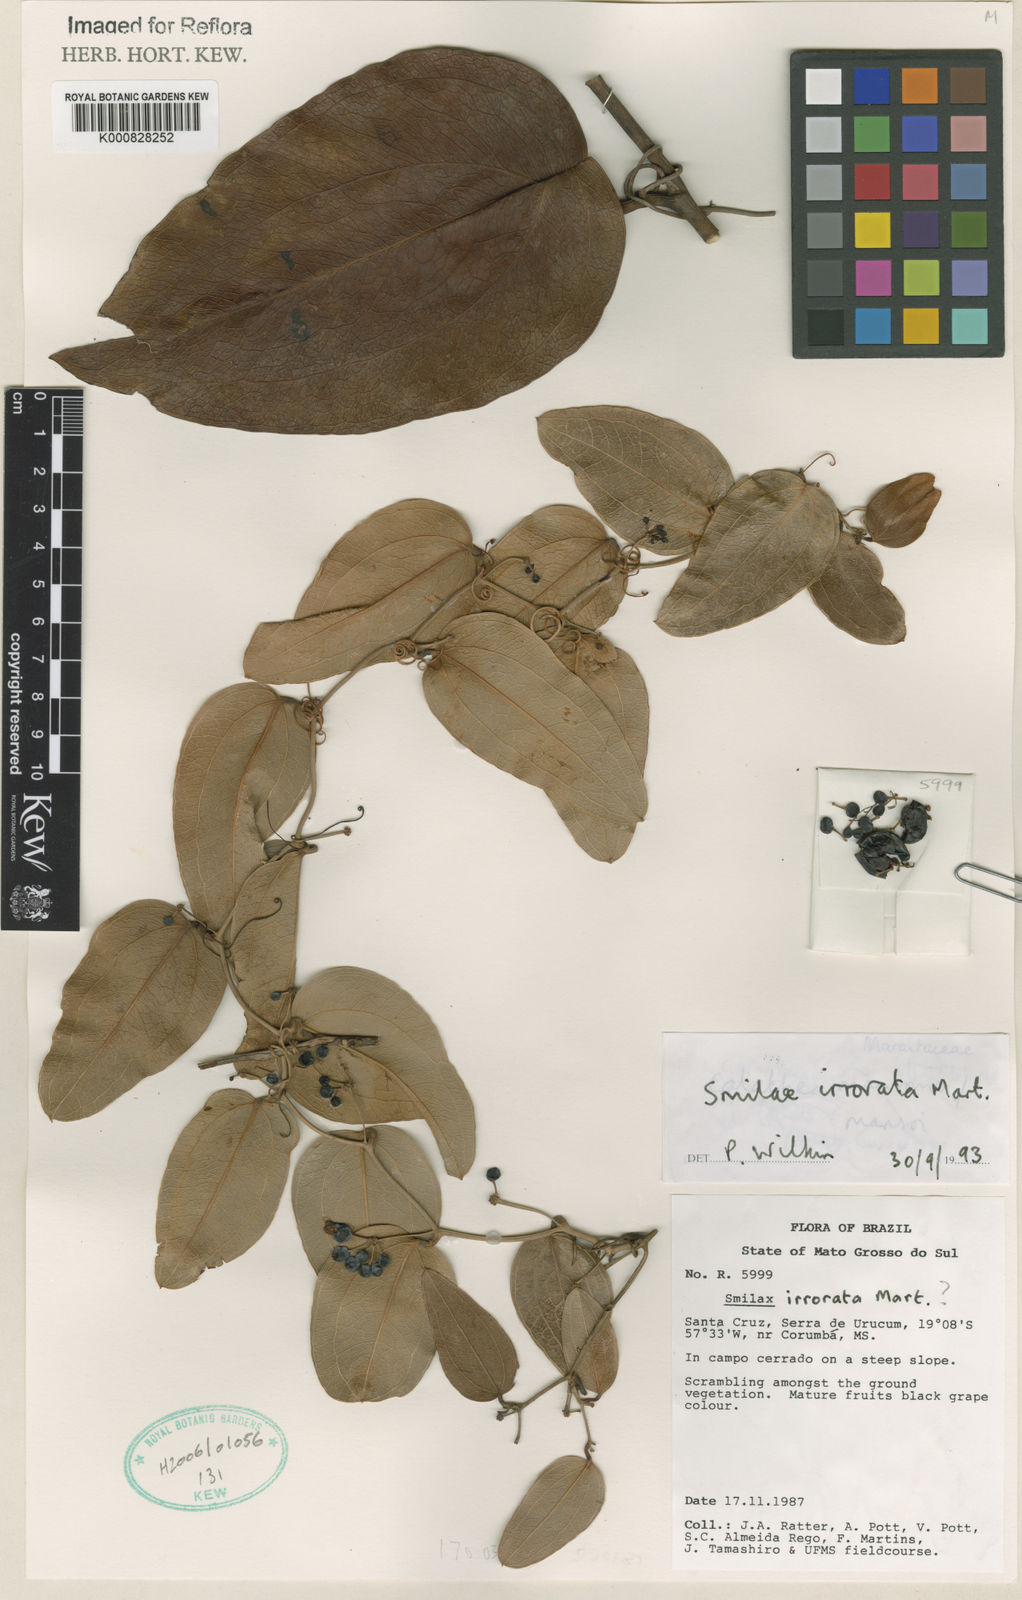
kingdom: Plantae
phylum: Tracheophyta
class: Liliopsida
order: Liliales
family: Smilacaceae
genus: Smilax
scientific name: Smilax irrorata
